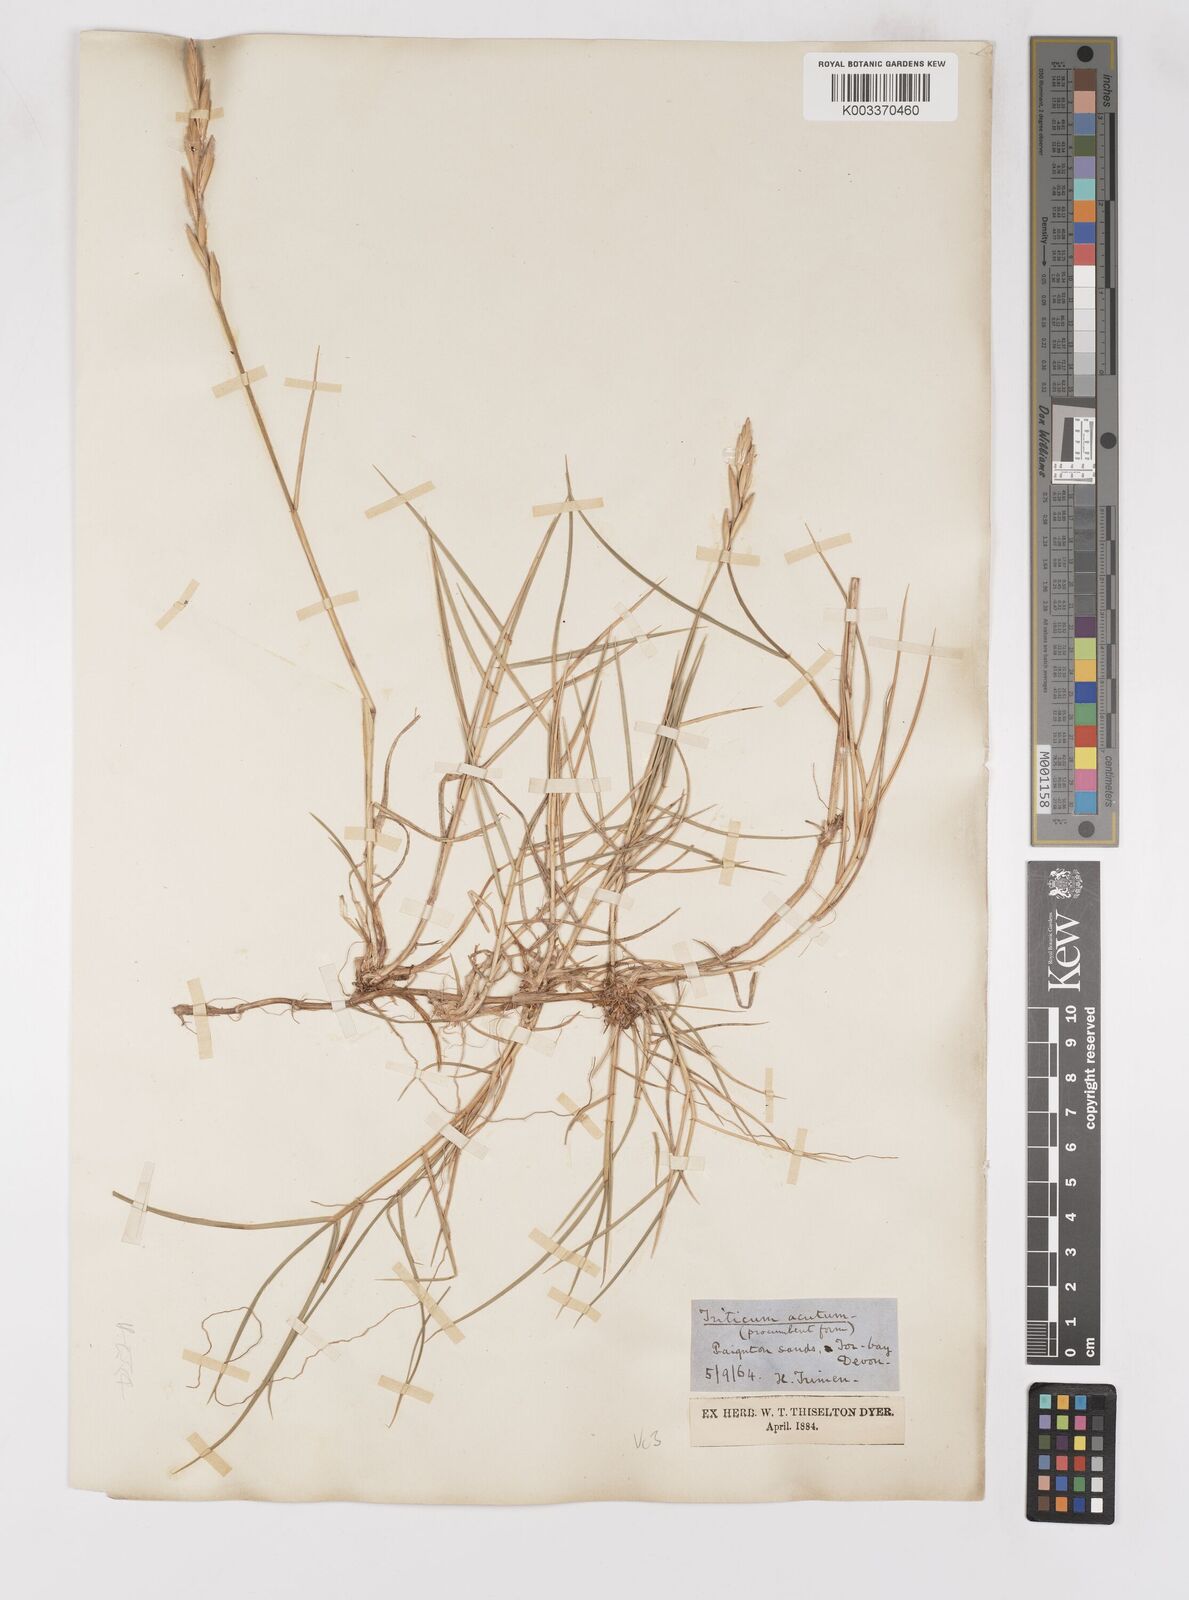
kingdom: Plantae
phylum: Tracheophyta
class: Liliopsida
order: Poales
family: Poaceae
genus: Thinoelymus
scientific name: Thinoelymus obtusiusculus
